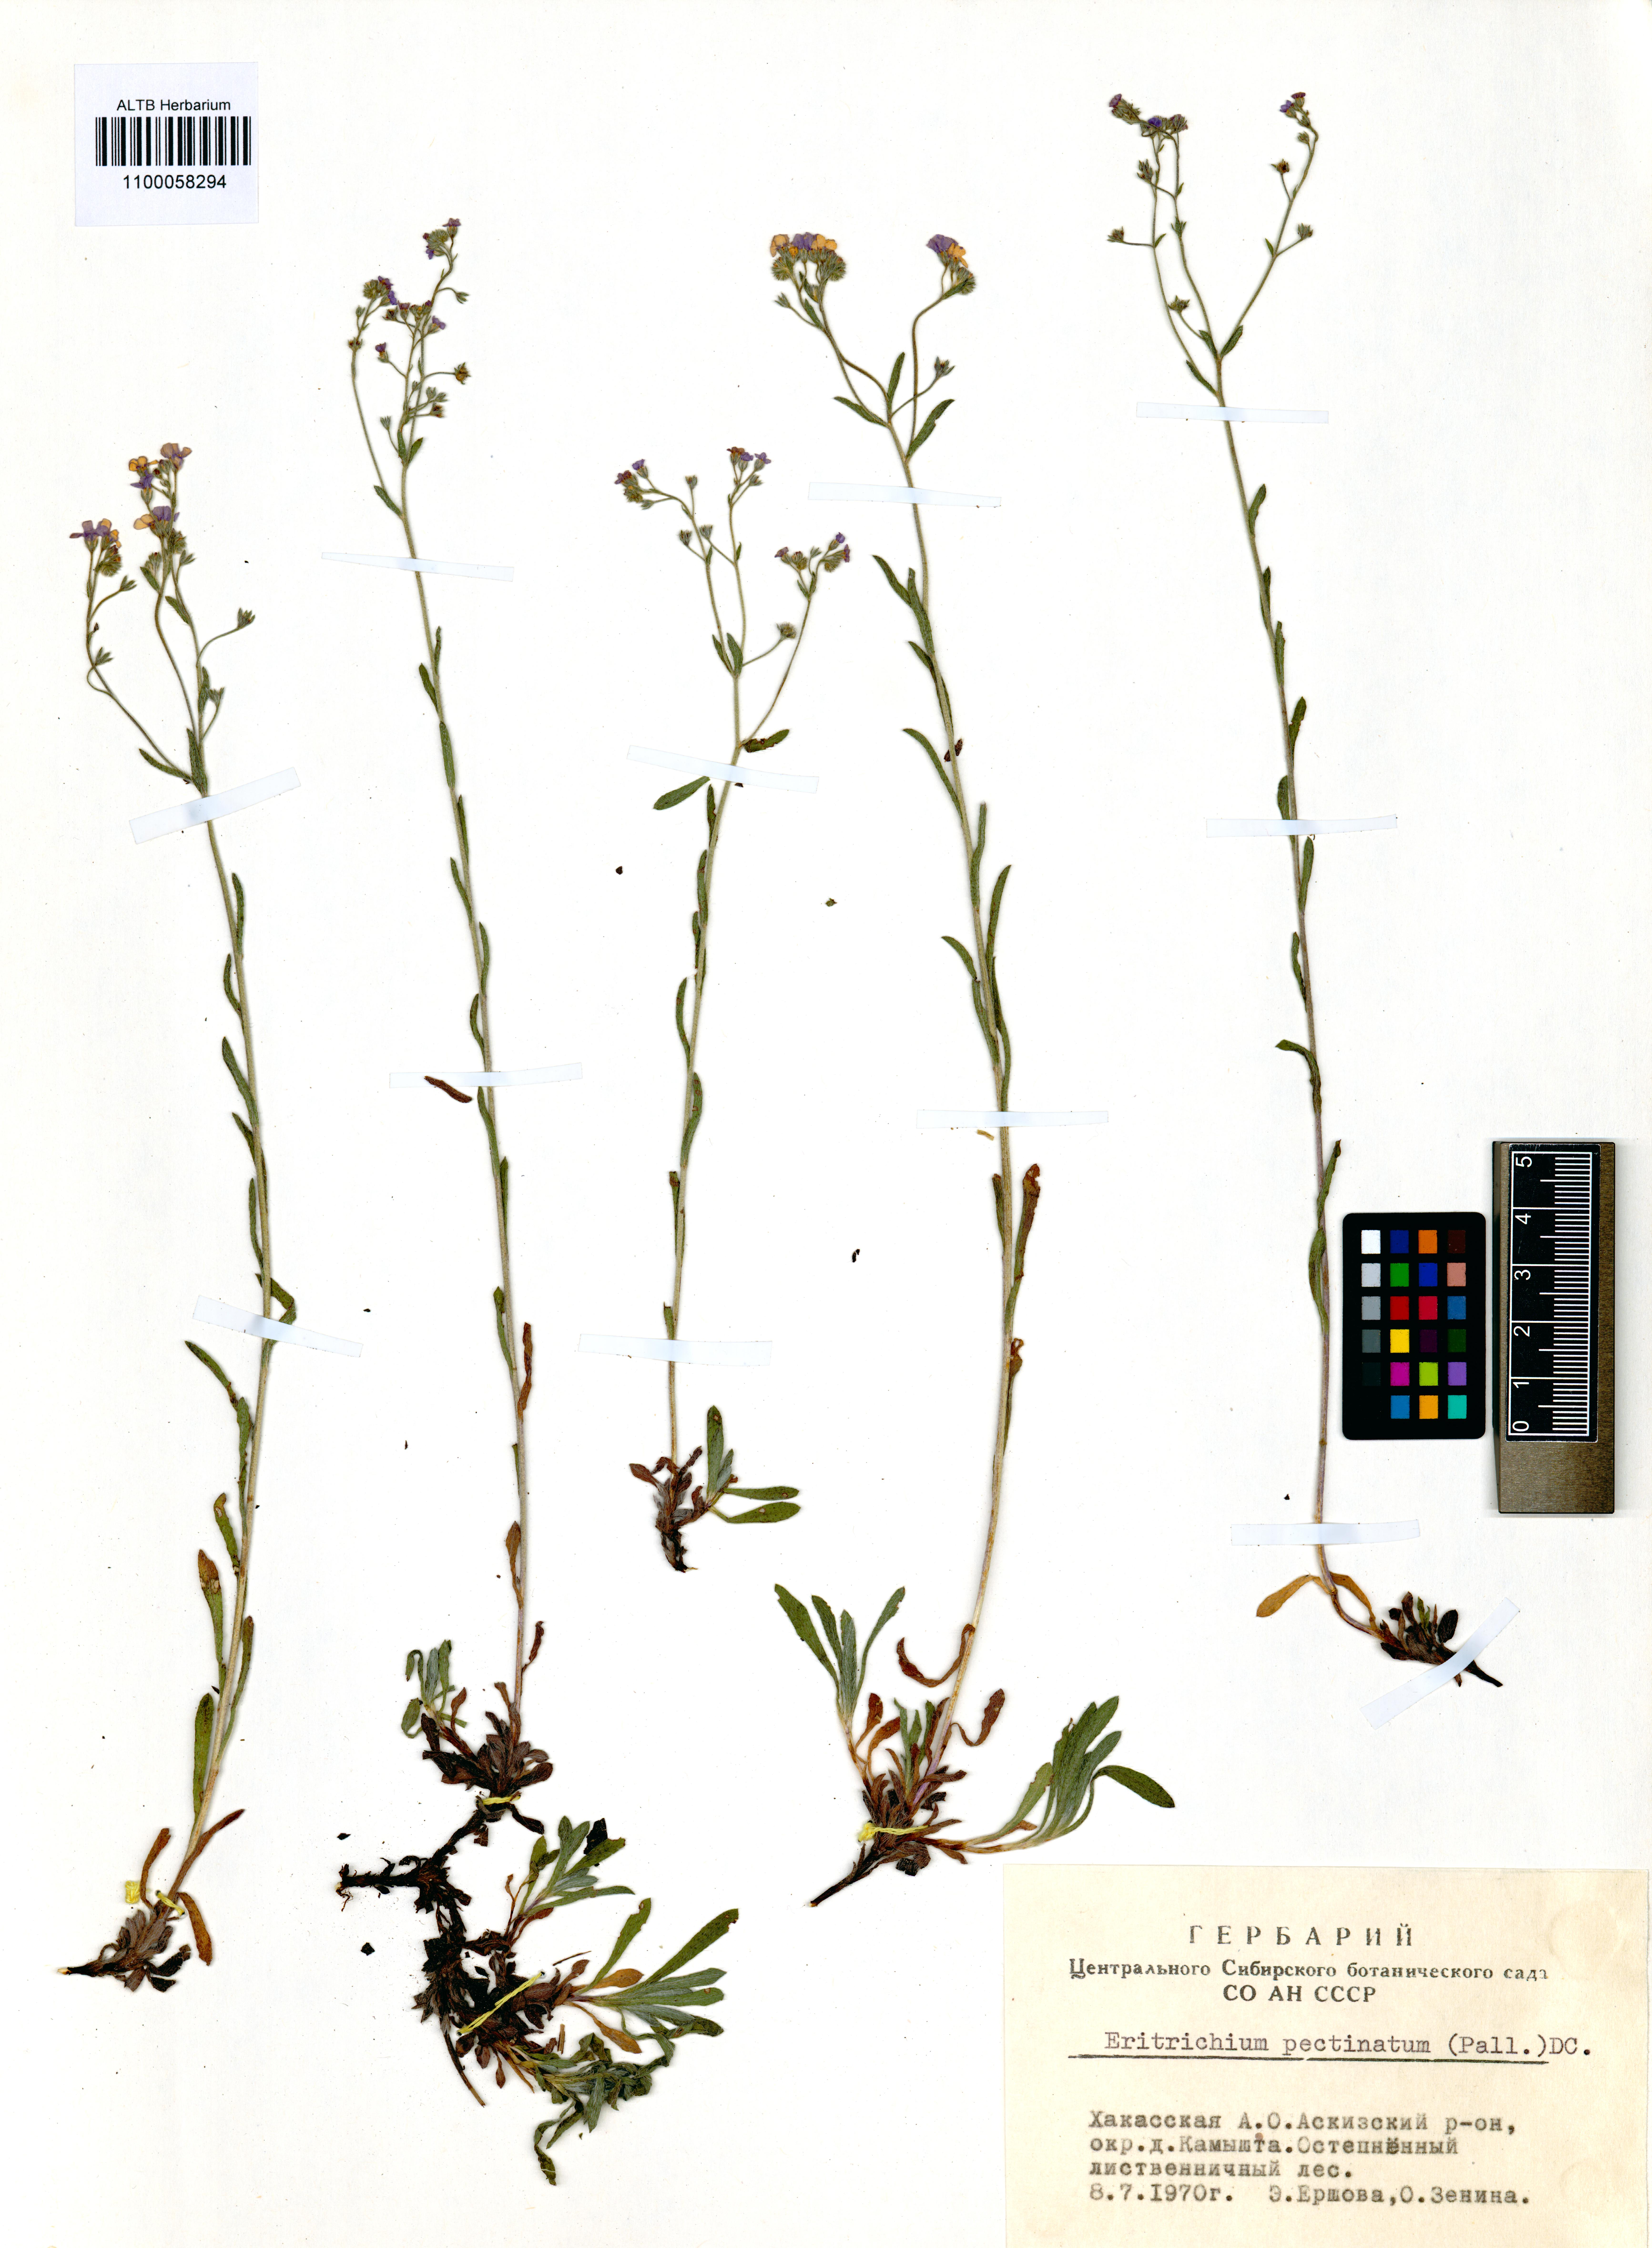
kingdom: Plantae
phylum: Tracheophyta
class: Magnoliopsida
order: Boraginales
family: Boraginaceae
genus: Eritrichium
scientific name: Eritrichium pectinatum
